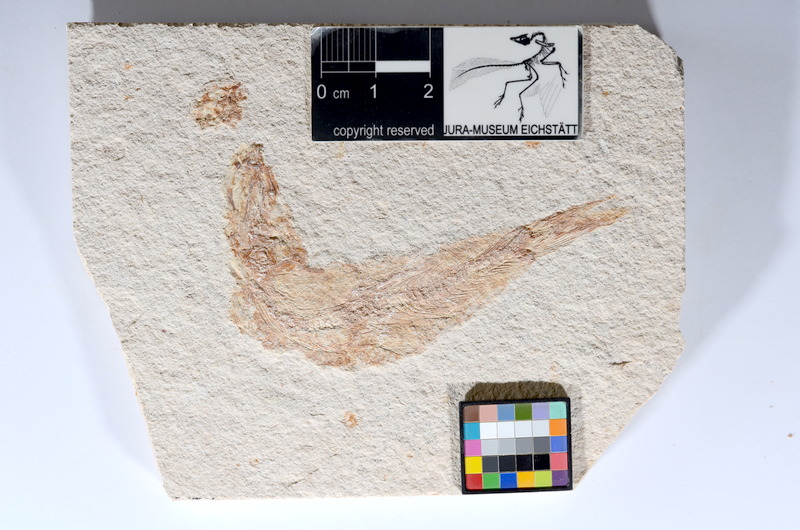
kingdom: Animalia
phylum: Chordata
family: Ascalaboidae
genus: Tharsis
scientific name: Tharsis dubius
